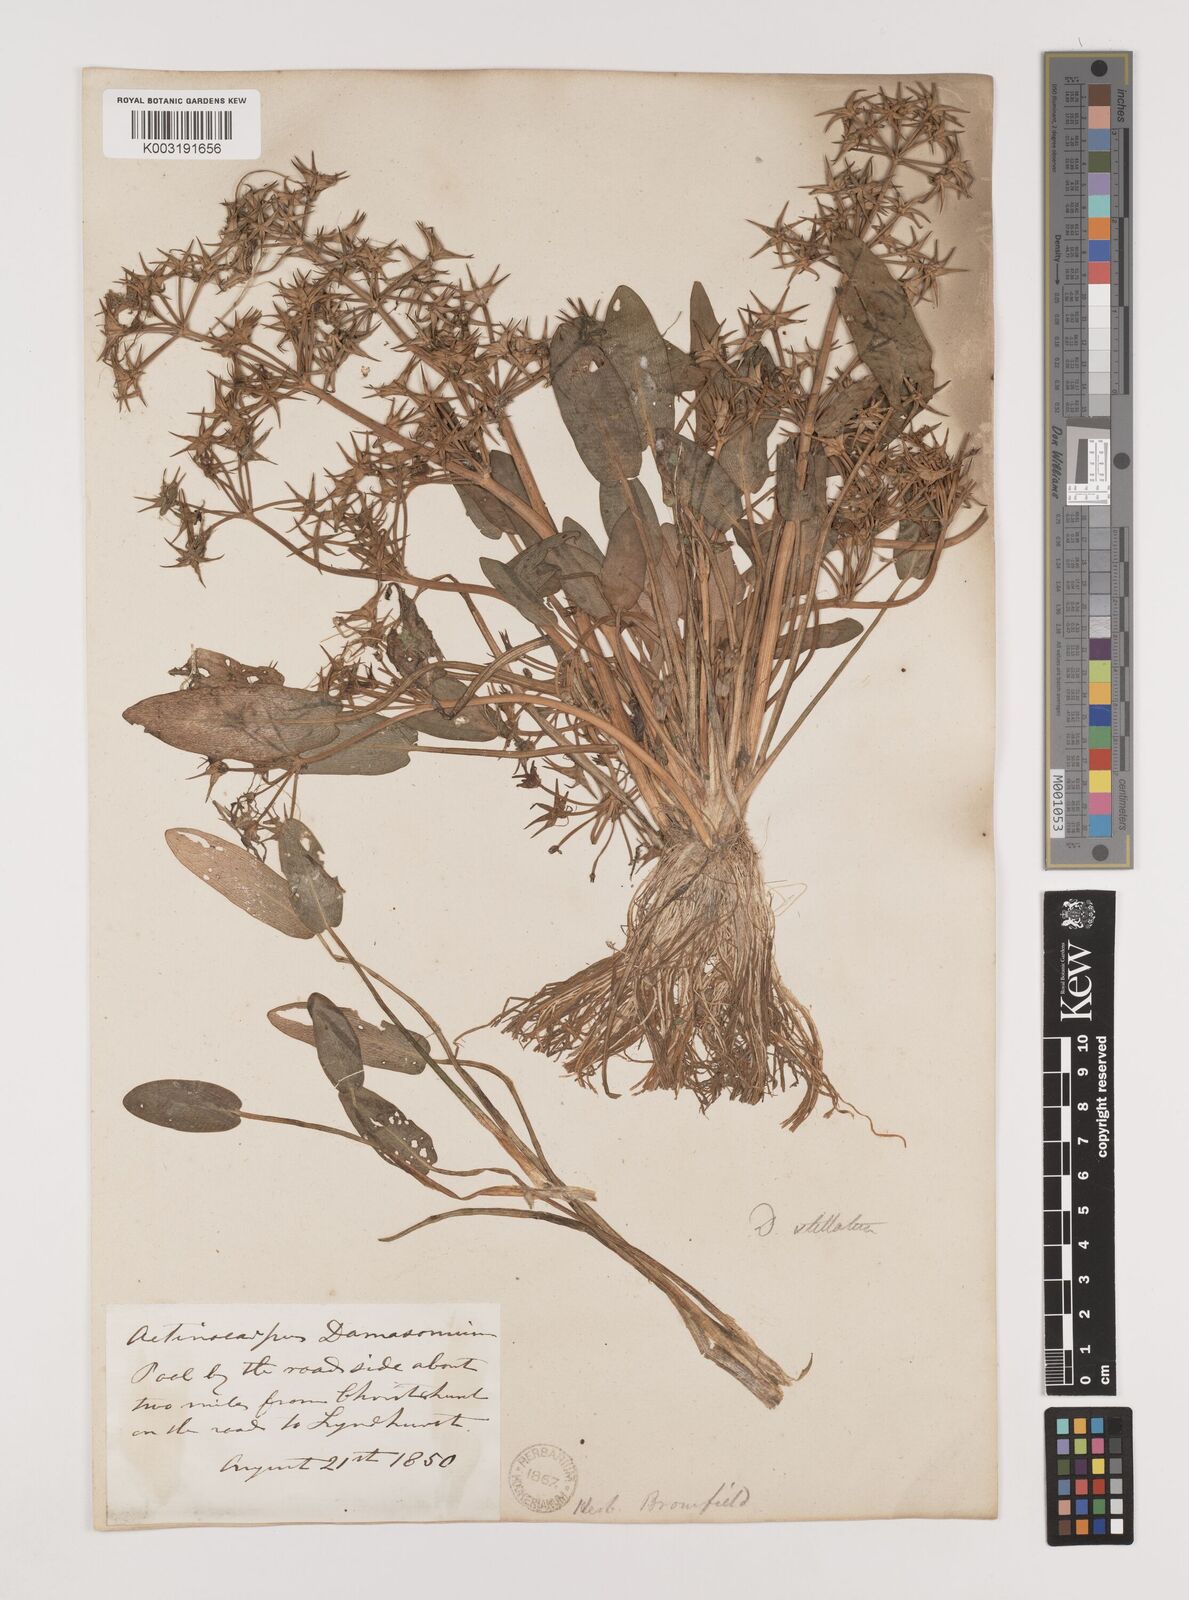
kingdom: Plantae
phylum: Tracheophyta
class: Liliopsida
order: Alismatales
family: Alismataceae
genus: Damasonium
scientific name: Damasonium alisma
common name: Starfruit
